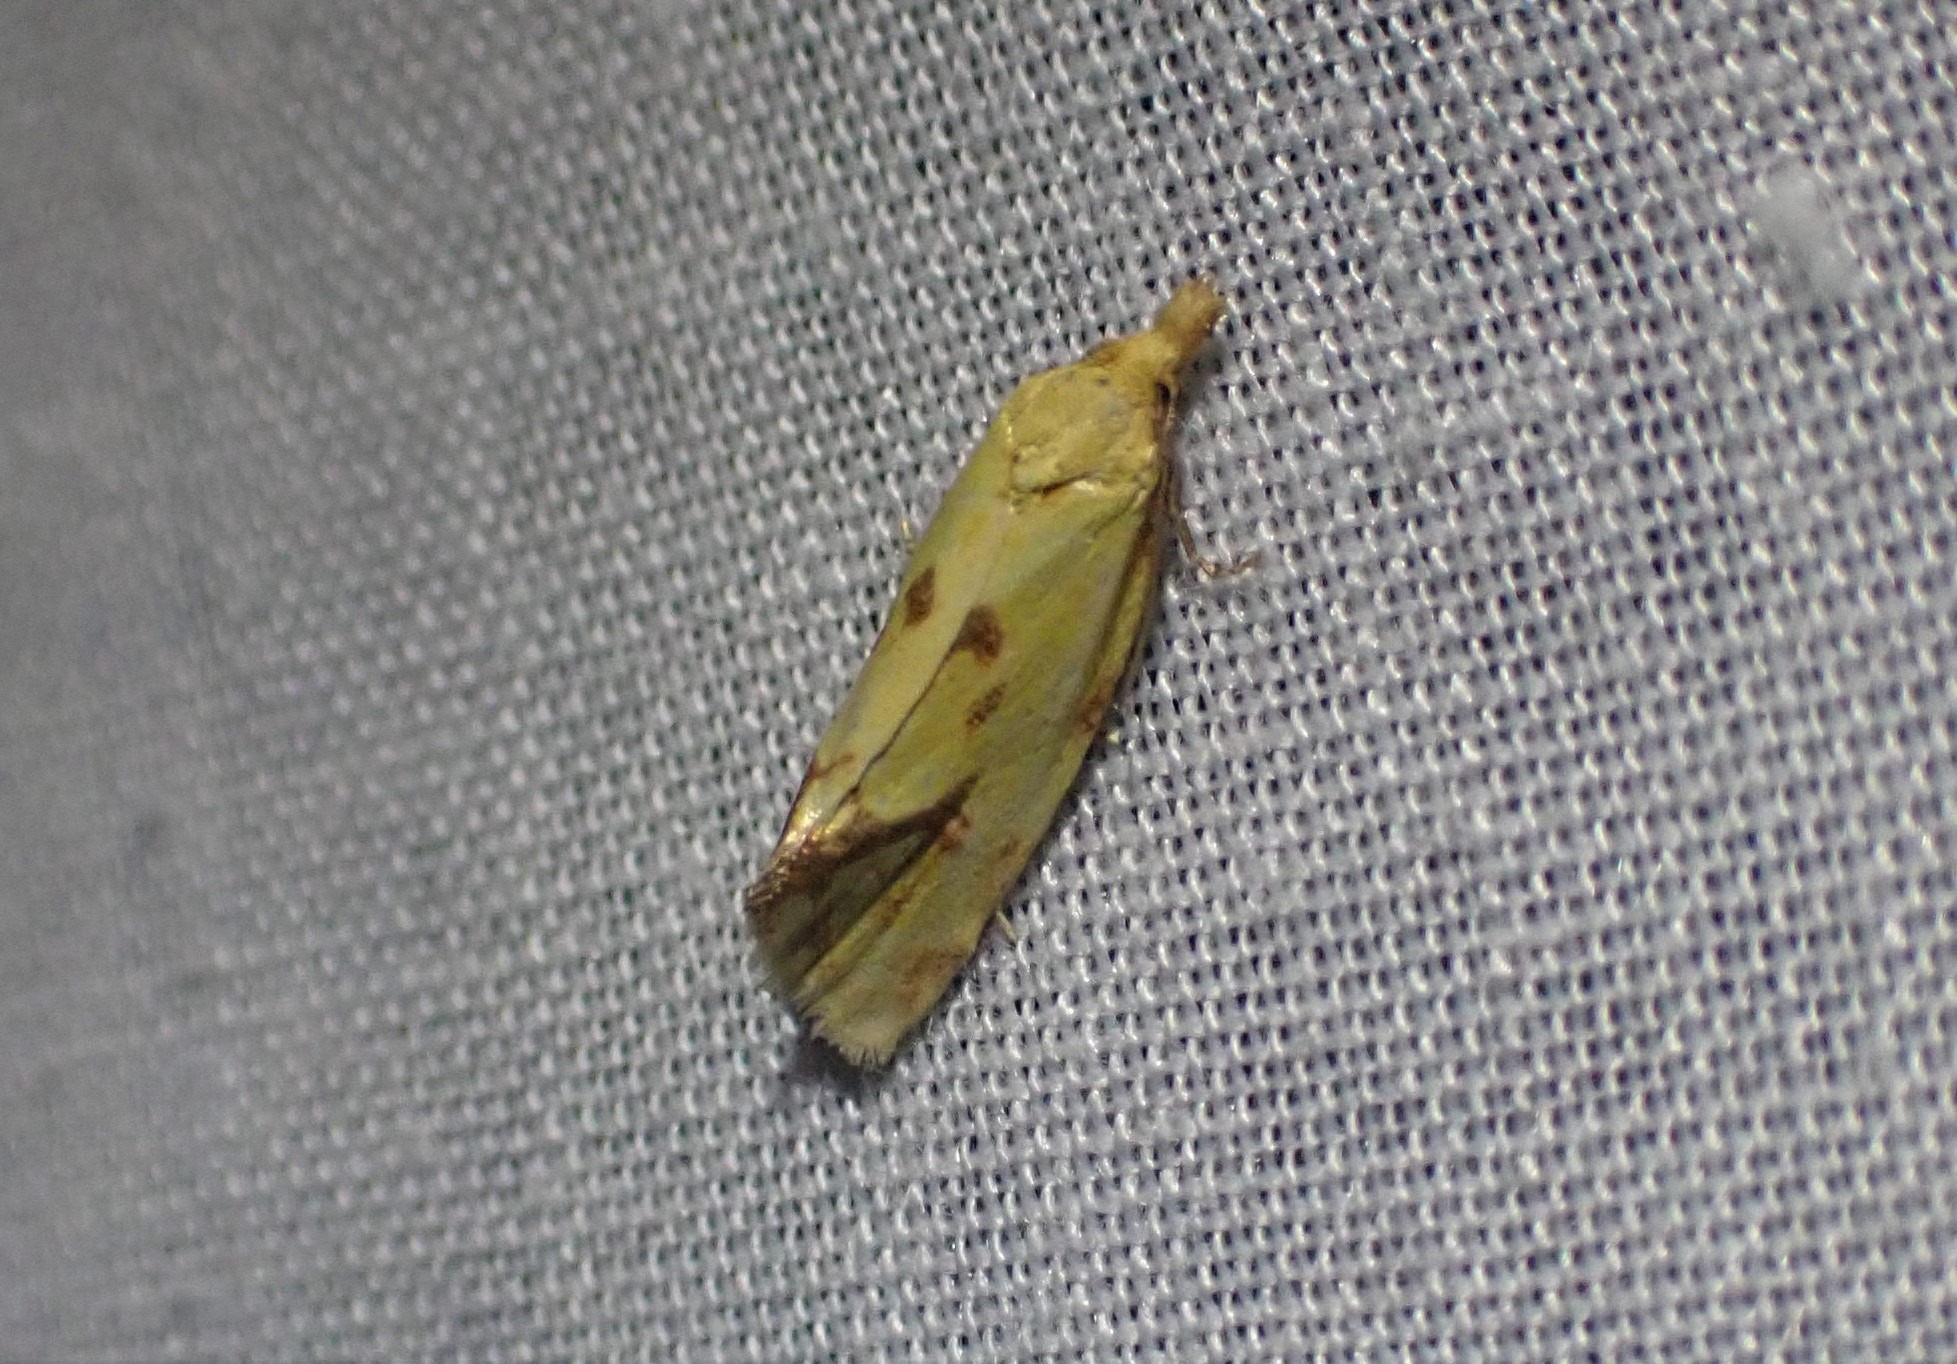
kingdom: Animalia
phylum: Arthropoda
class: Insecta
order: Lepidoptera
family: Tortricidae
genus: Agapeta
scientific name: Agapeta hamana
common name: Tidselgulvikler
